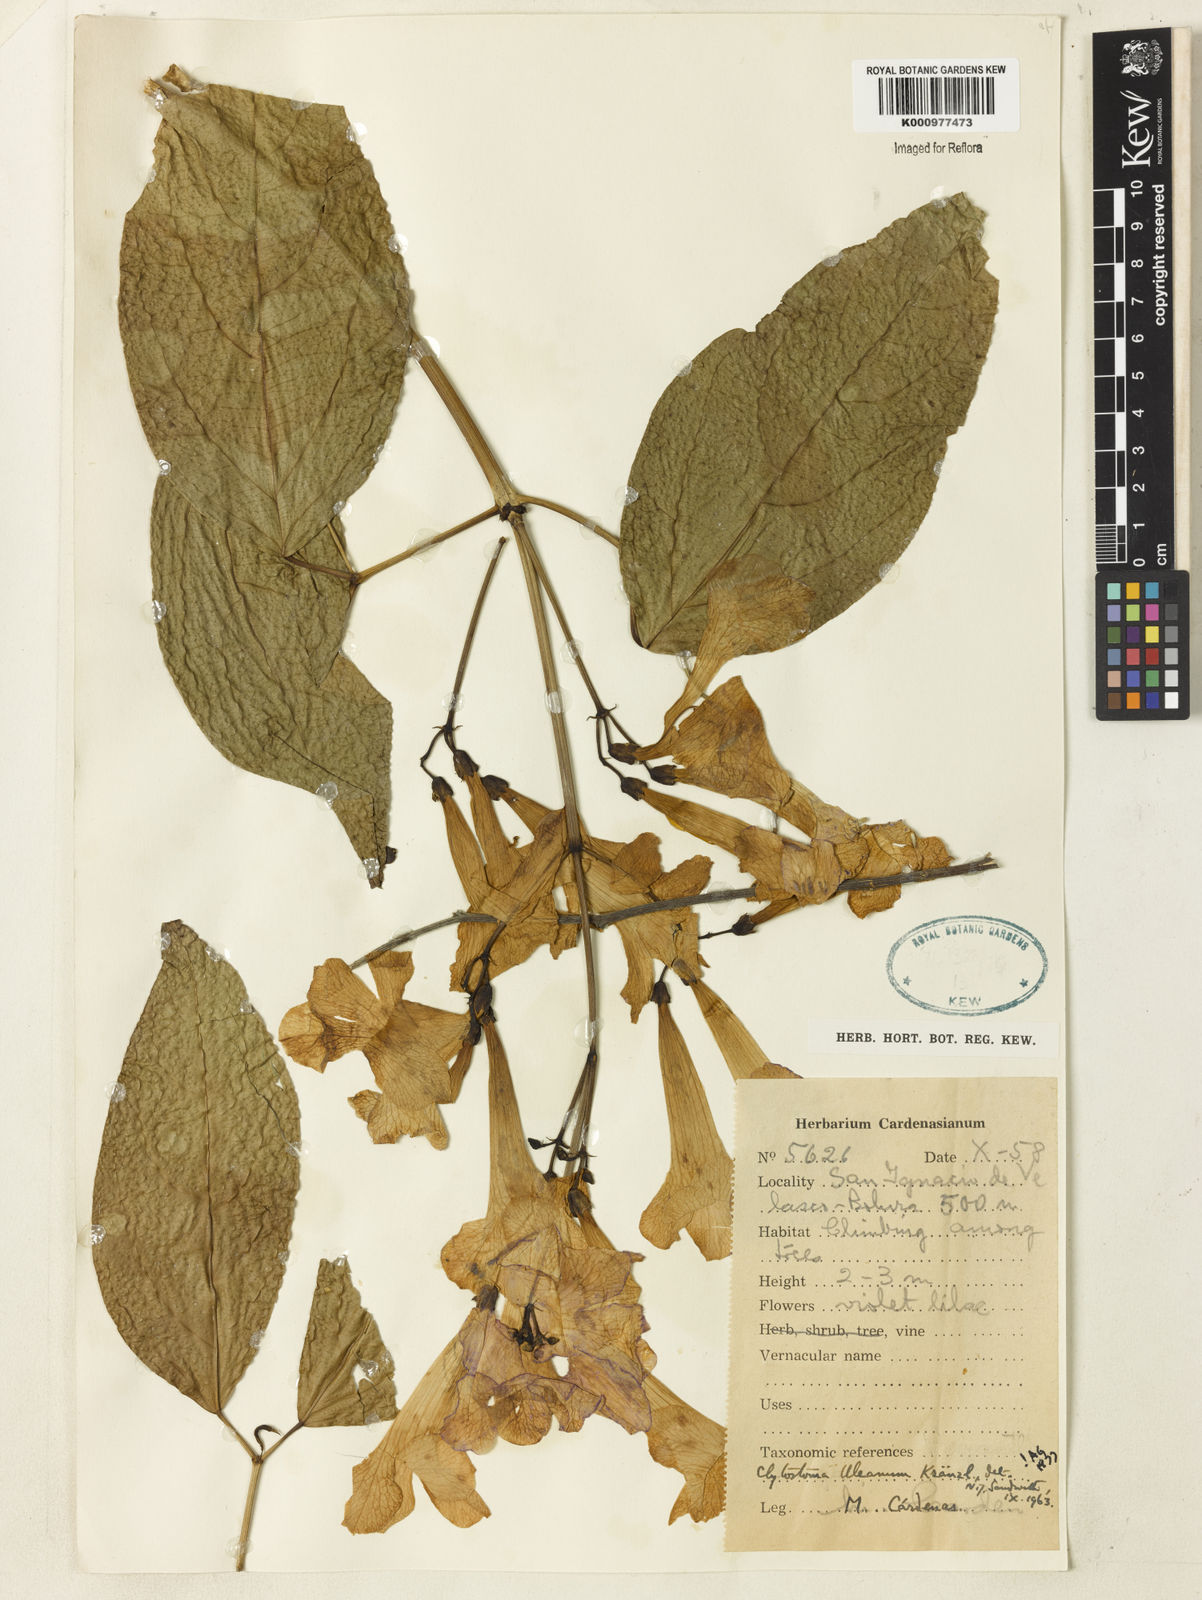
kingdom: Plantae
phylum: Tracheophyta
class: Magnoliopsida
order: Lamiales
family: Bignoniaceae
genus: Bignonia
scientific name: Bignonia uleana
